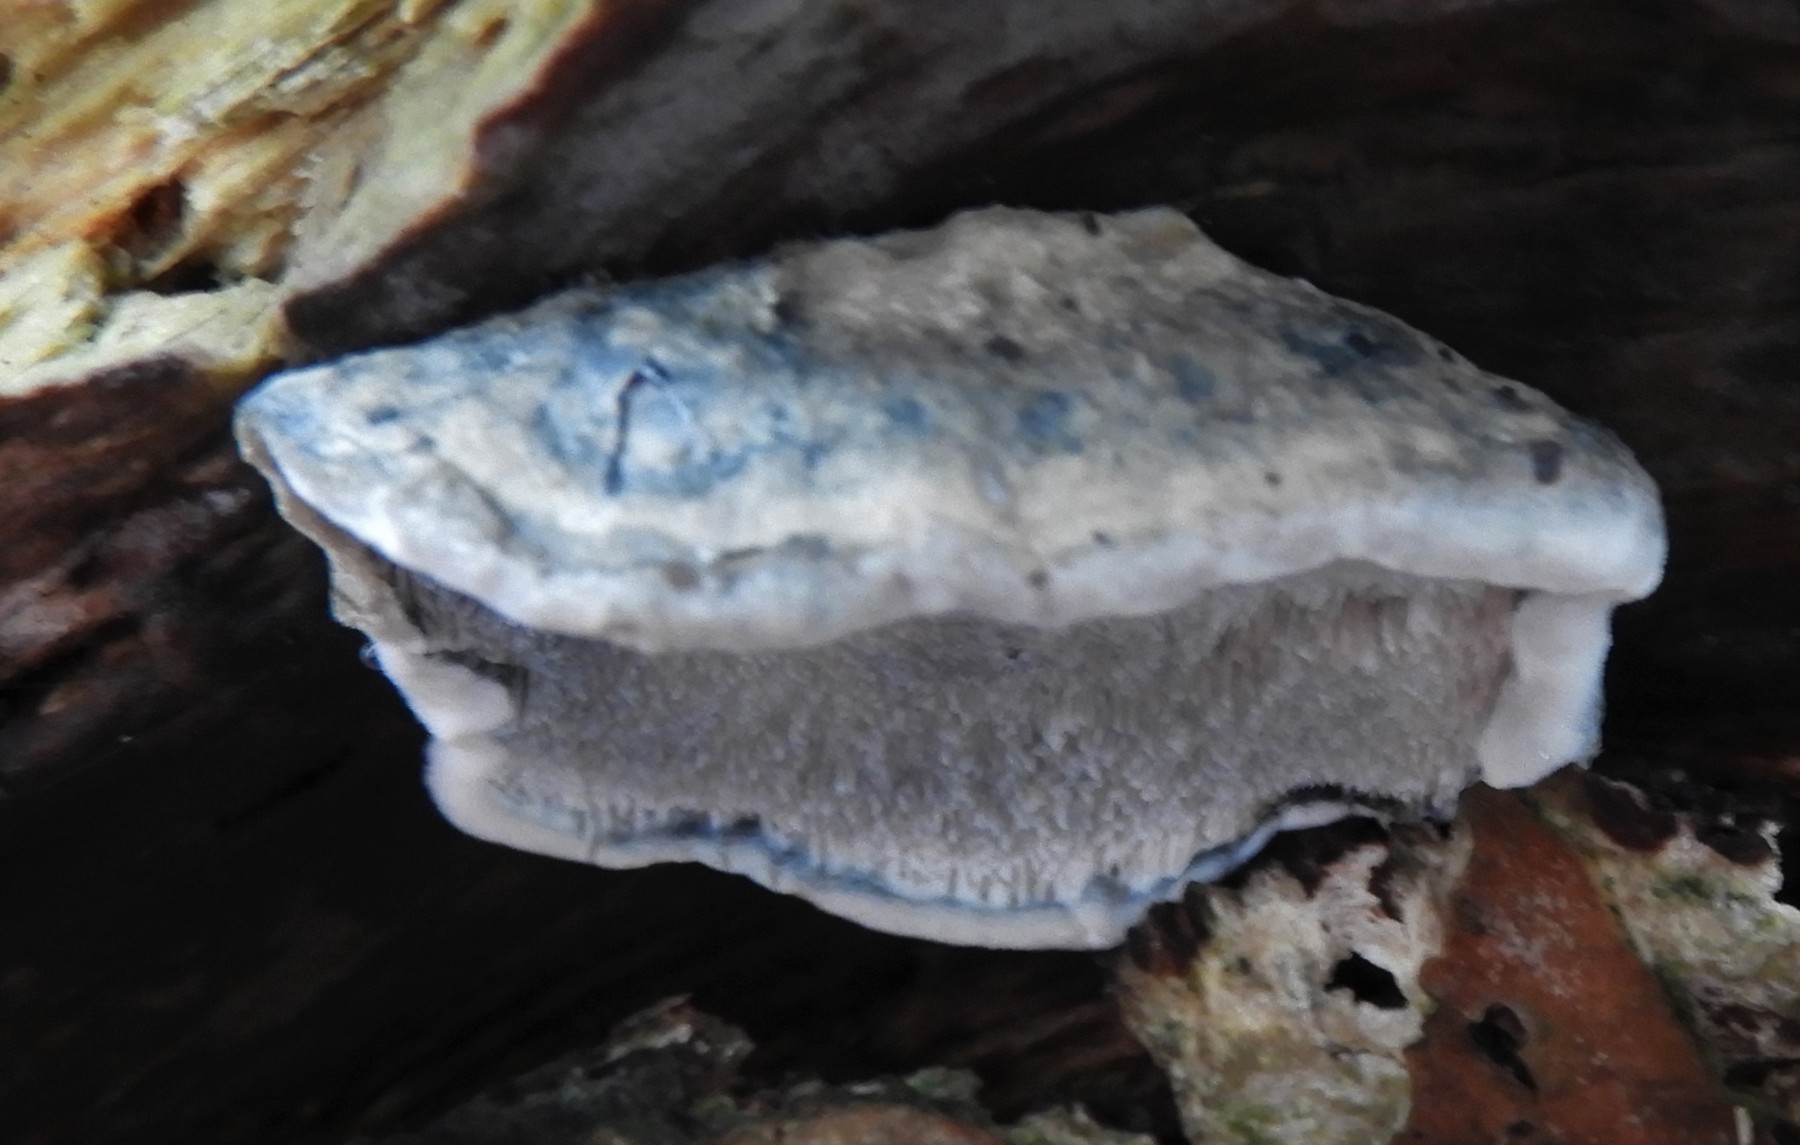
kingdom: Fungi
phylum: Basidiomycota
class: Agaricomycetes
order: Polyporales
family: Polyporaceae
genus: Cyanosporus
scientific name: Cyanosporus alni
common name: blegblå kødporesvamp
